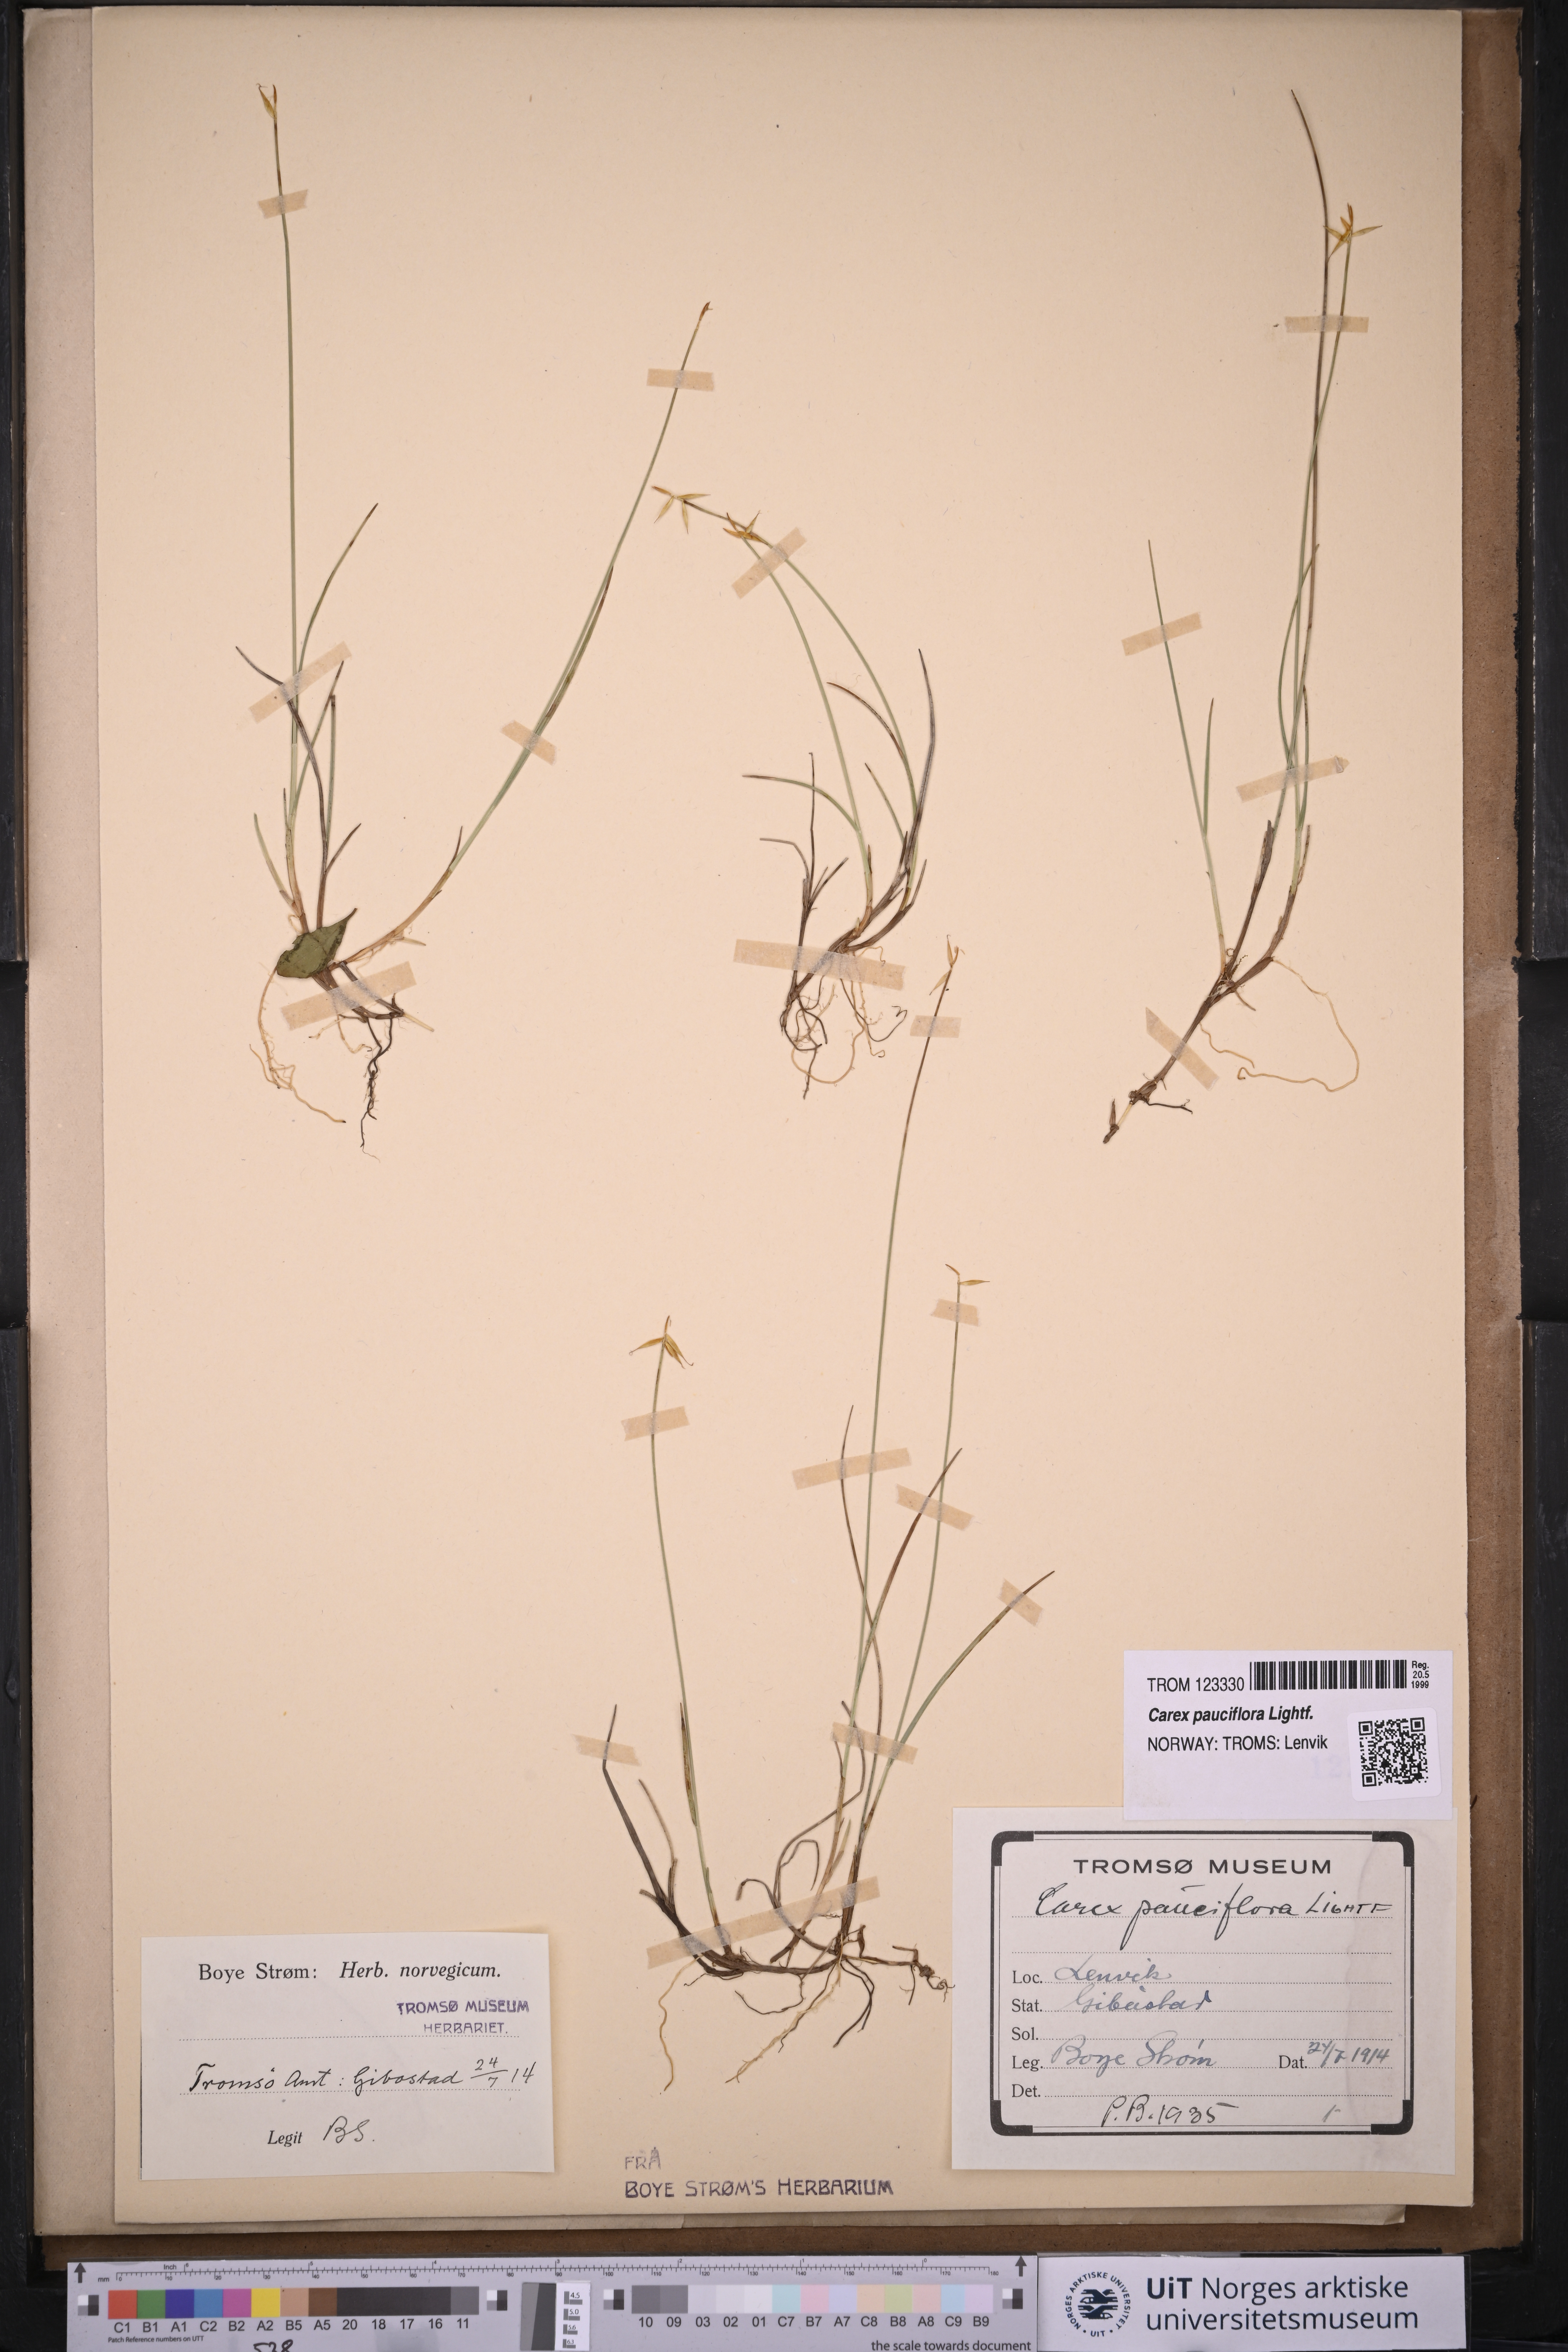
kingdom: Plantae
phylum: Tracheophyta
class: Liliopsida
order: Poales
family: Cyperaceae
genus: Carex
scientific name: Carex pauciflora
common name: Few-flowered sedge
